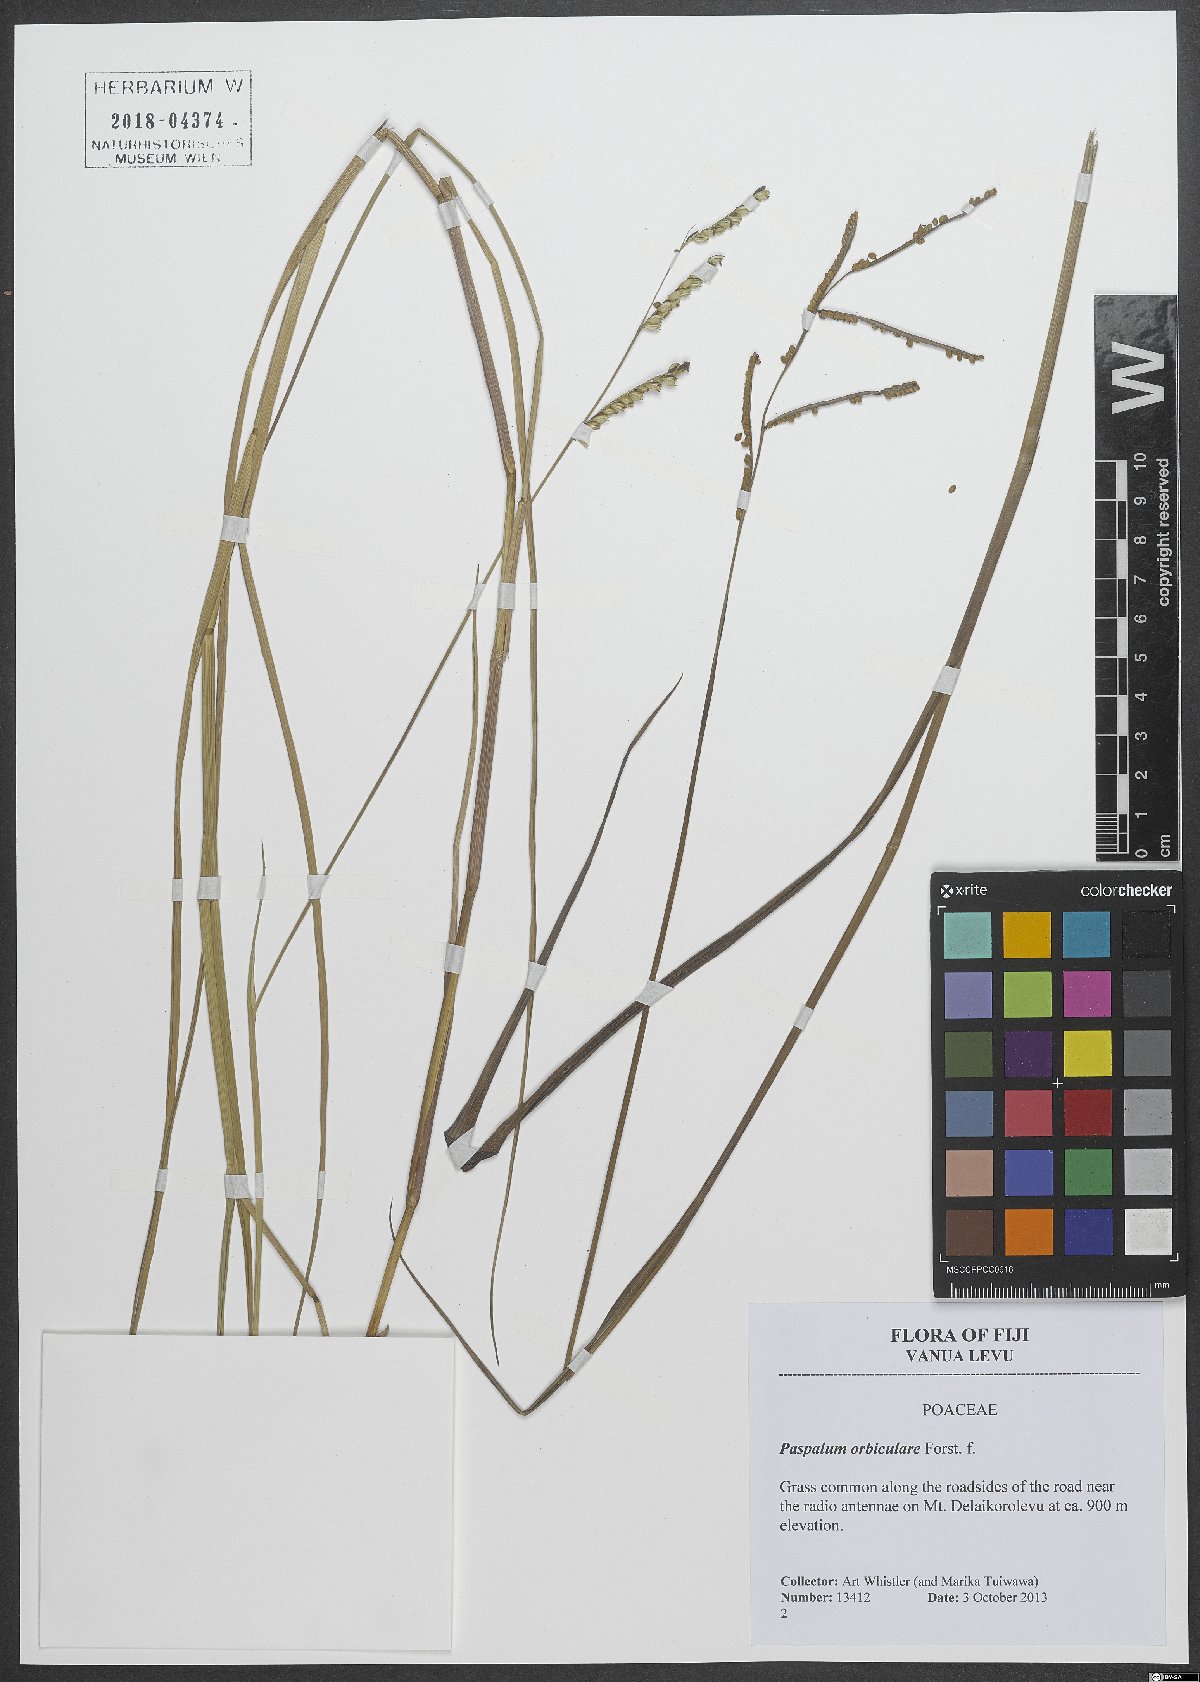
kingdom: Plantae
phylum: Tracheophyta
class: Liliopsida
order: Poales
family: Poaceae
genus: Paspalum
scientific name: Paspalum orbiculare
